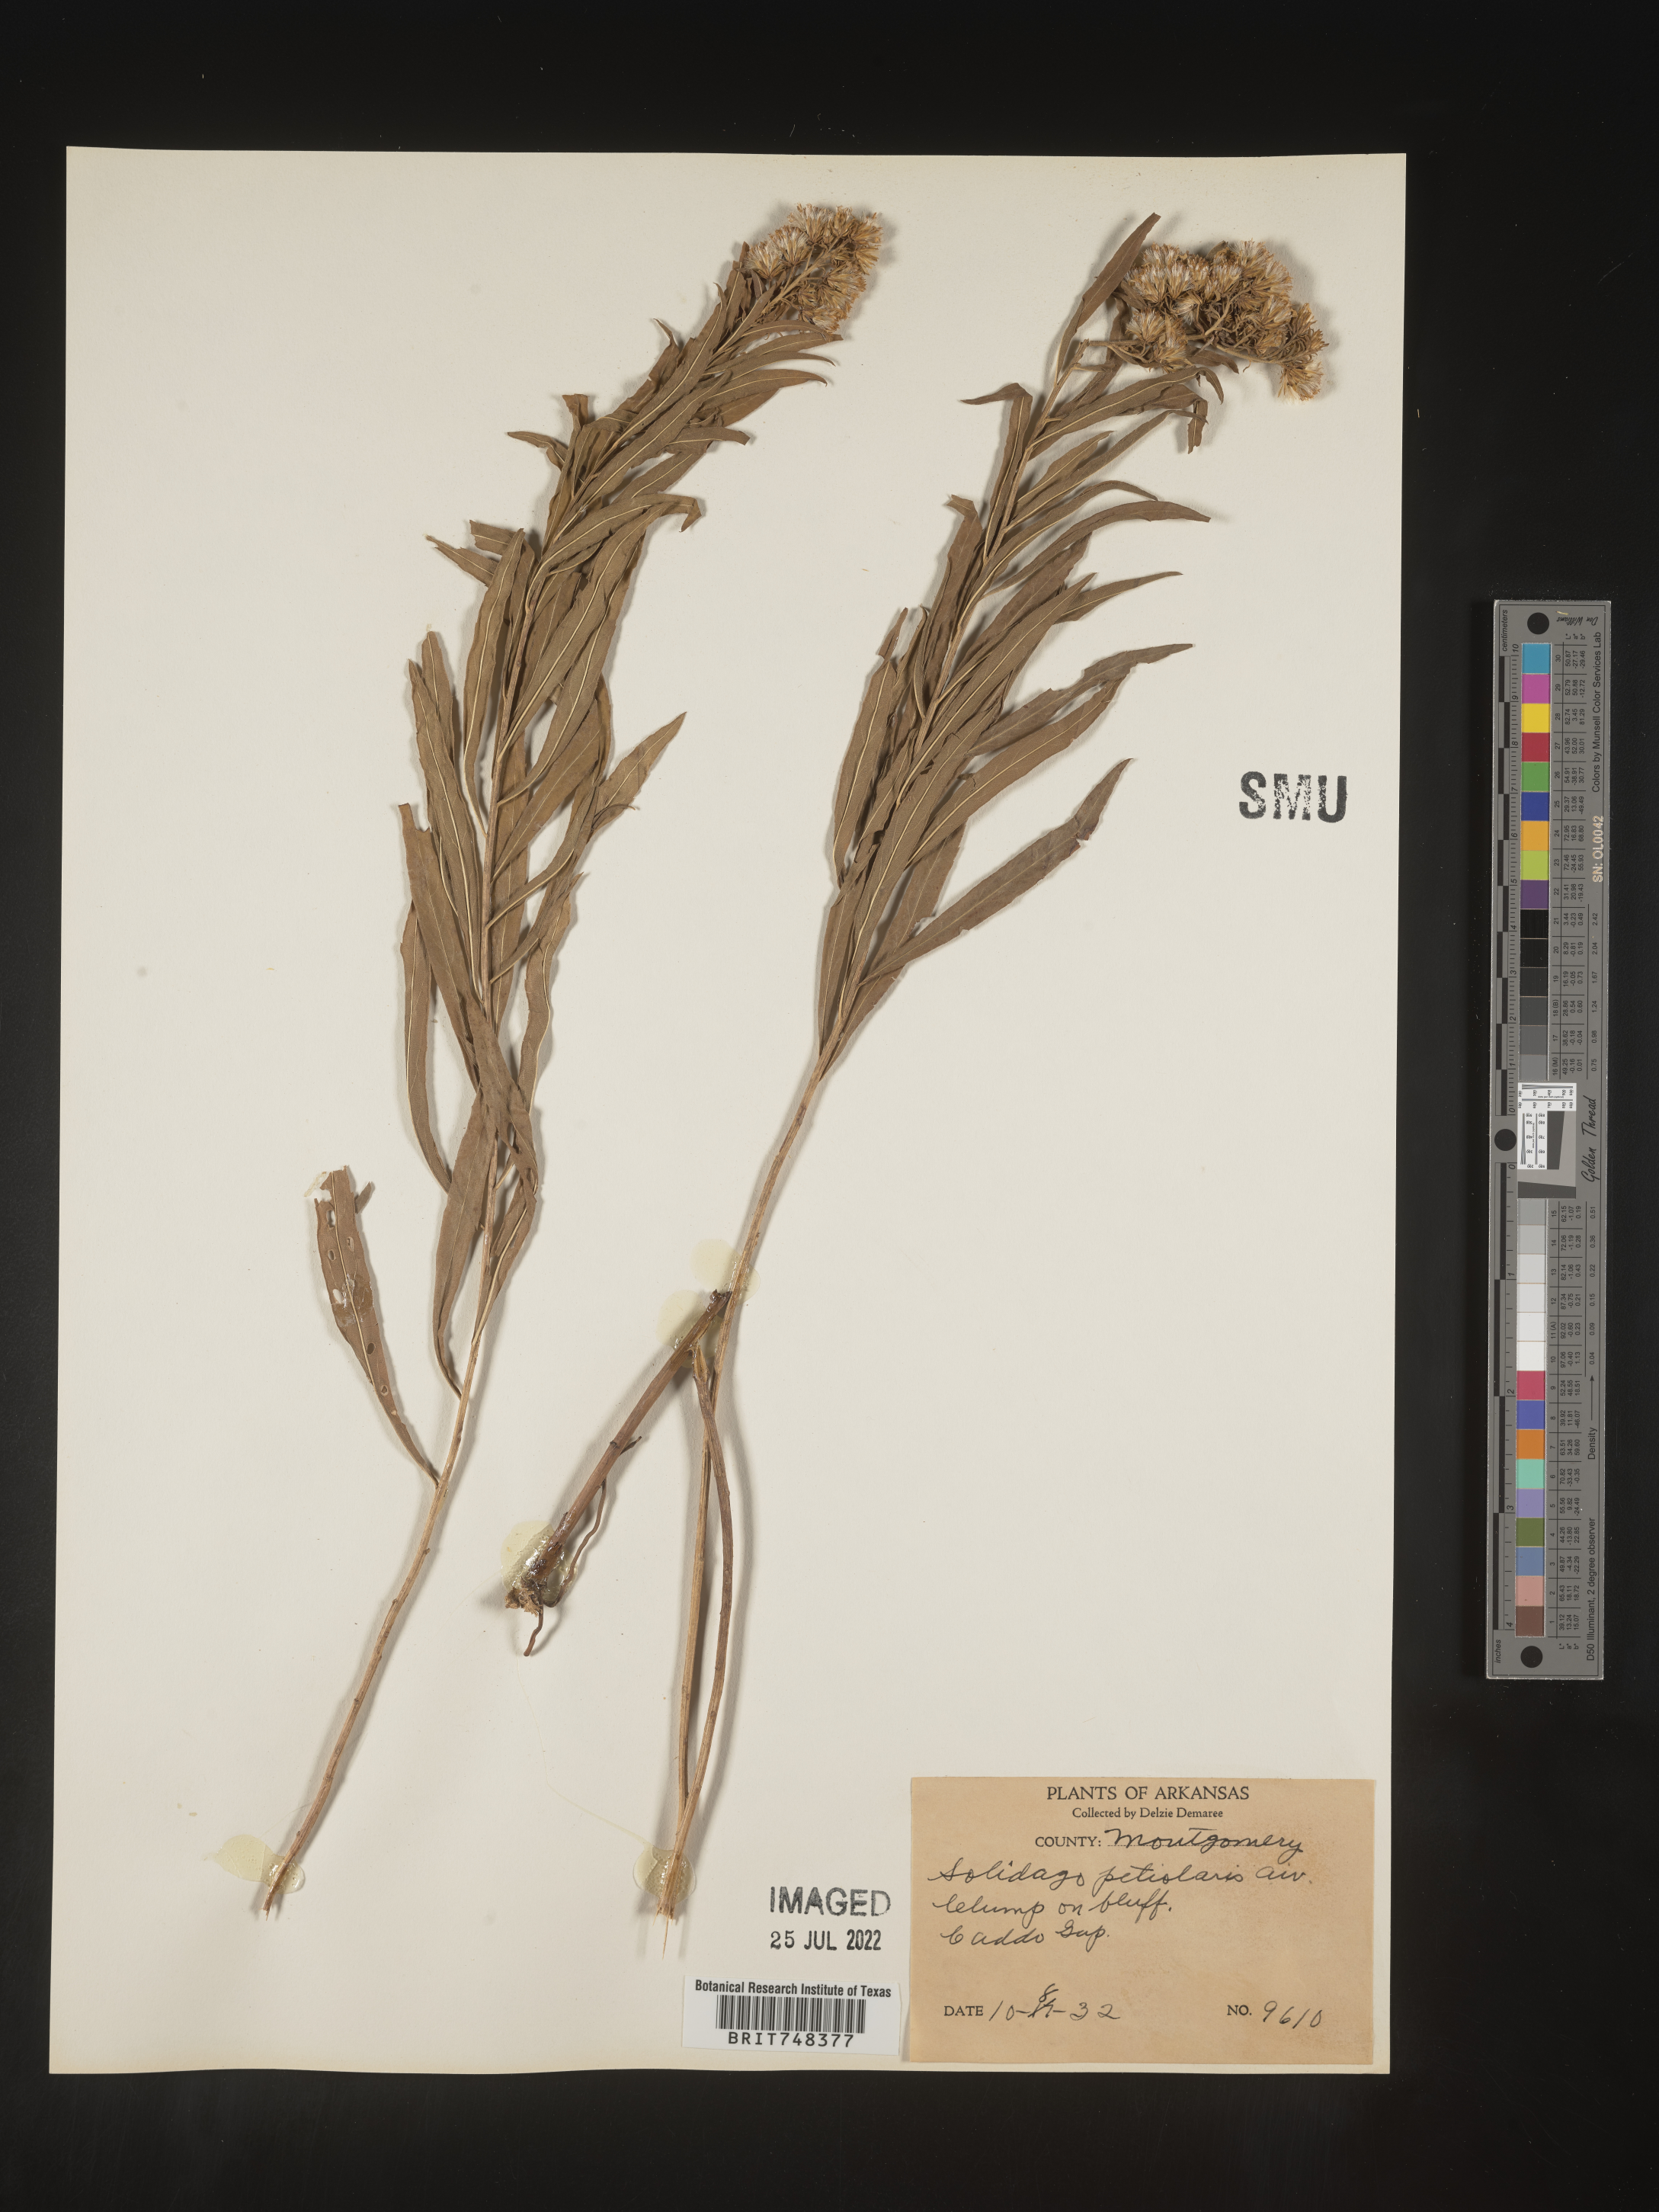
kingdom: Plantae
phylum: Tracheophyta
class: Magnoliopsida
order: Asterales
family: Asteraceae
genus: Solidago
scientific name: Solidago petiolaris
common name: Downy ragged goldenrod
